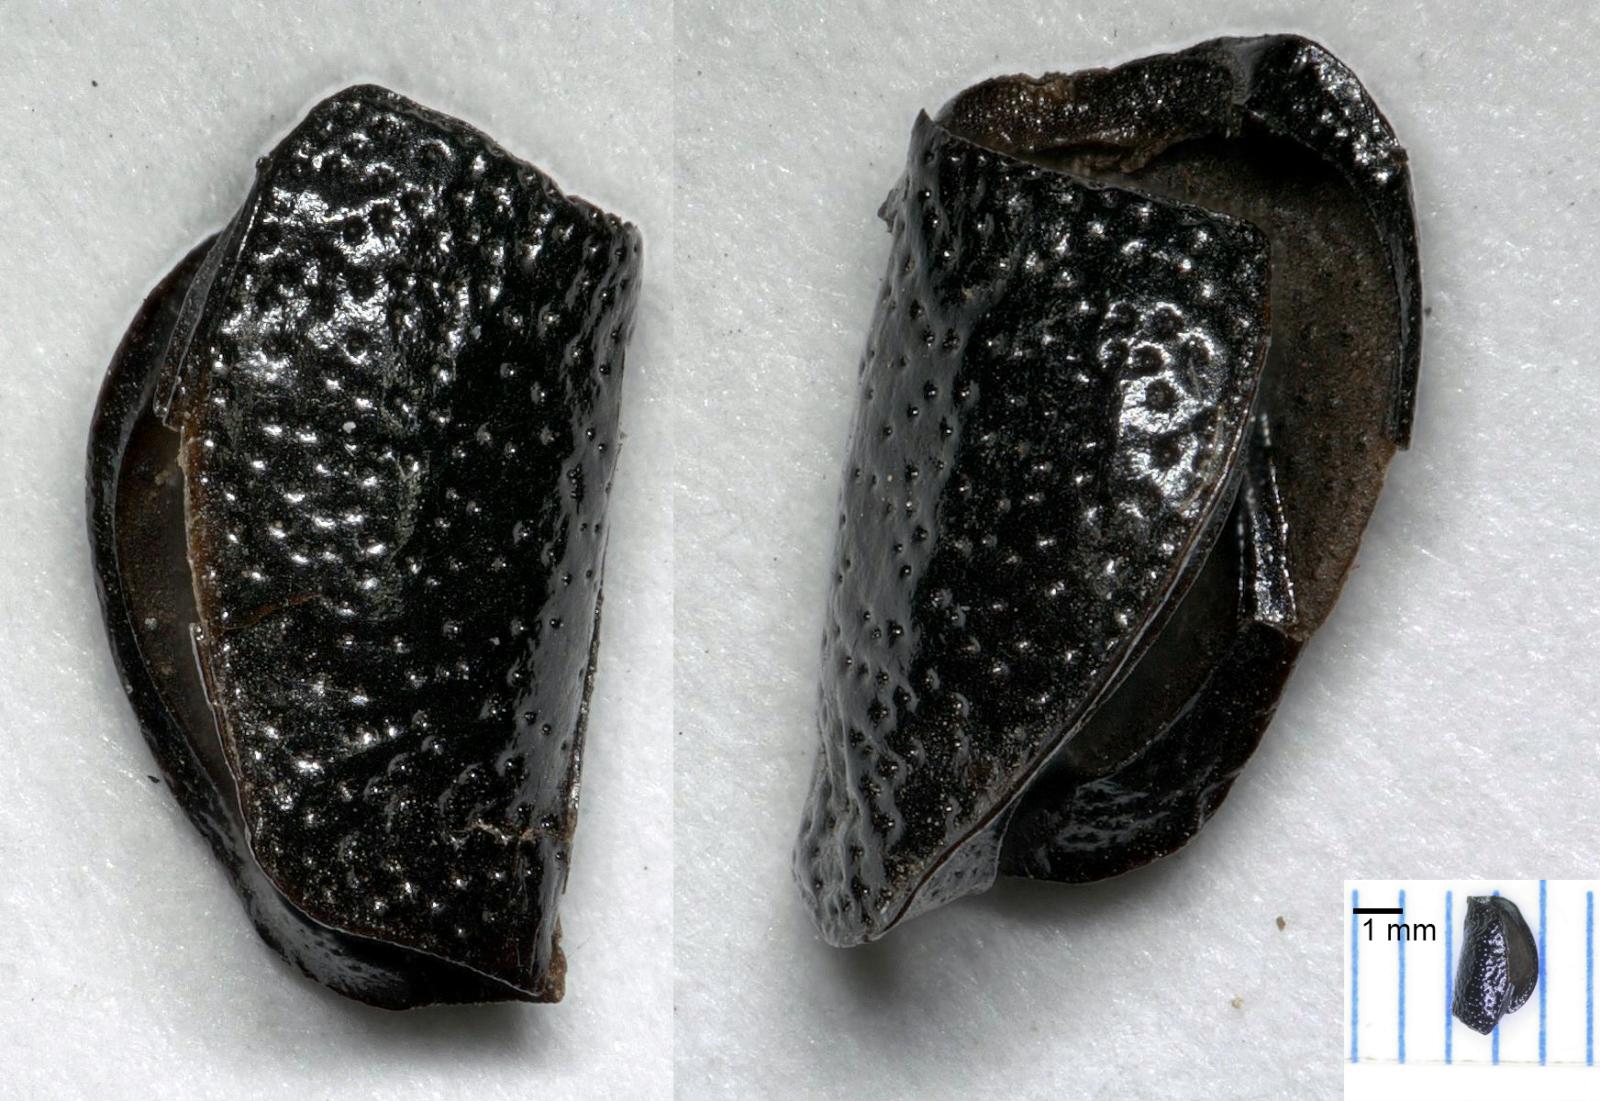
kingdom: Animalia
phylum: Arthropoda
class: Insecta
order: Coleoptera
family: Carabidae
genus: Dicheirus
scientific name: Dicheirus dilatatus
